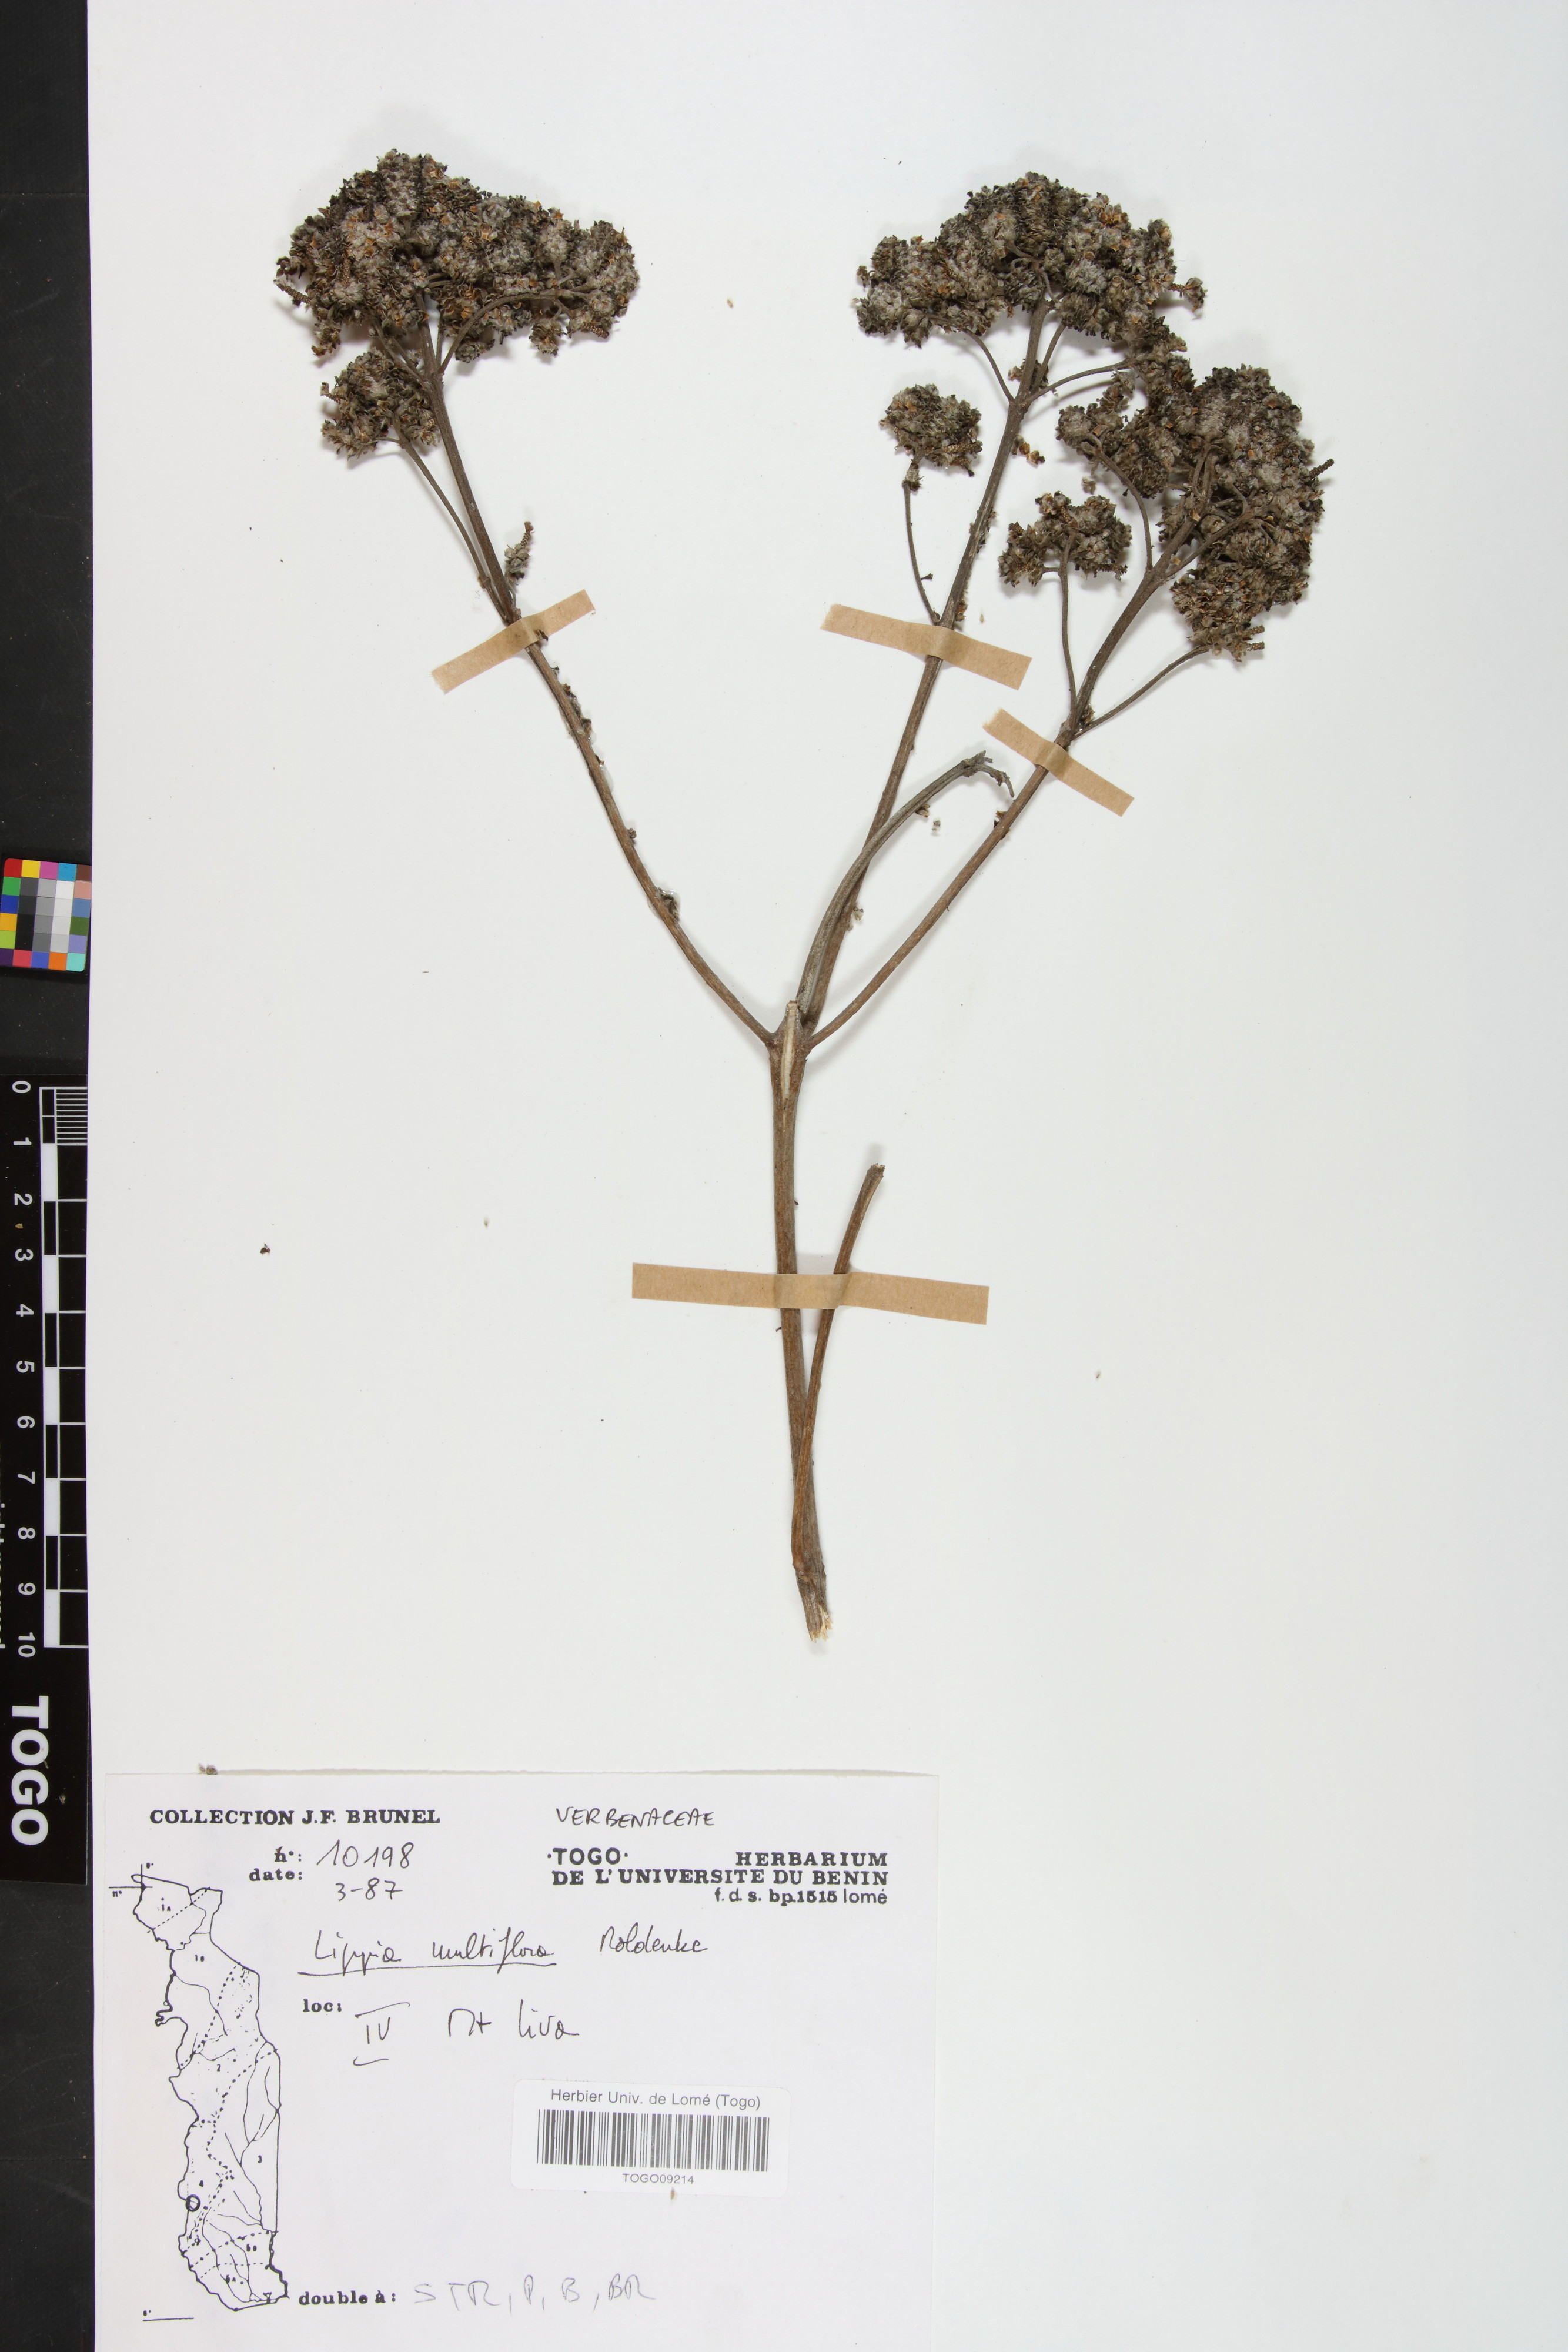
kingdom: Plantae
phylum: Tracheophyta
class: Magnoliopsida
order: Lamiales
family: Verbenaceae
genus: Lippia
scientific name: Lippia multiflora
